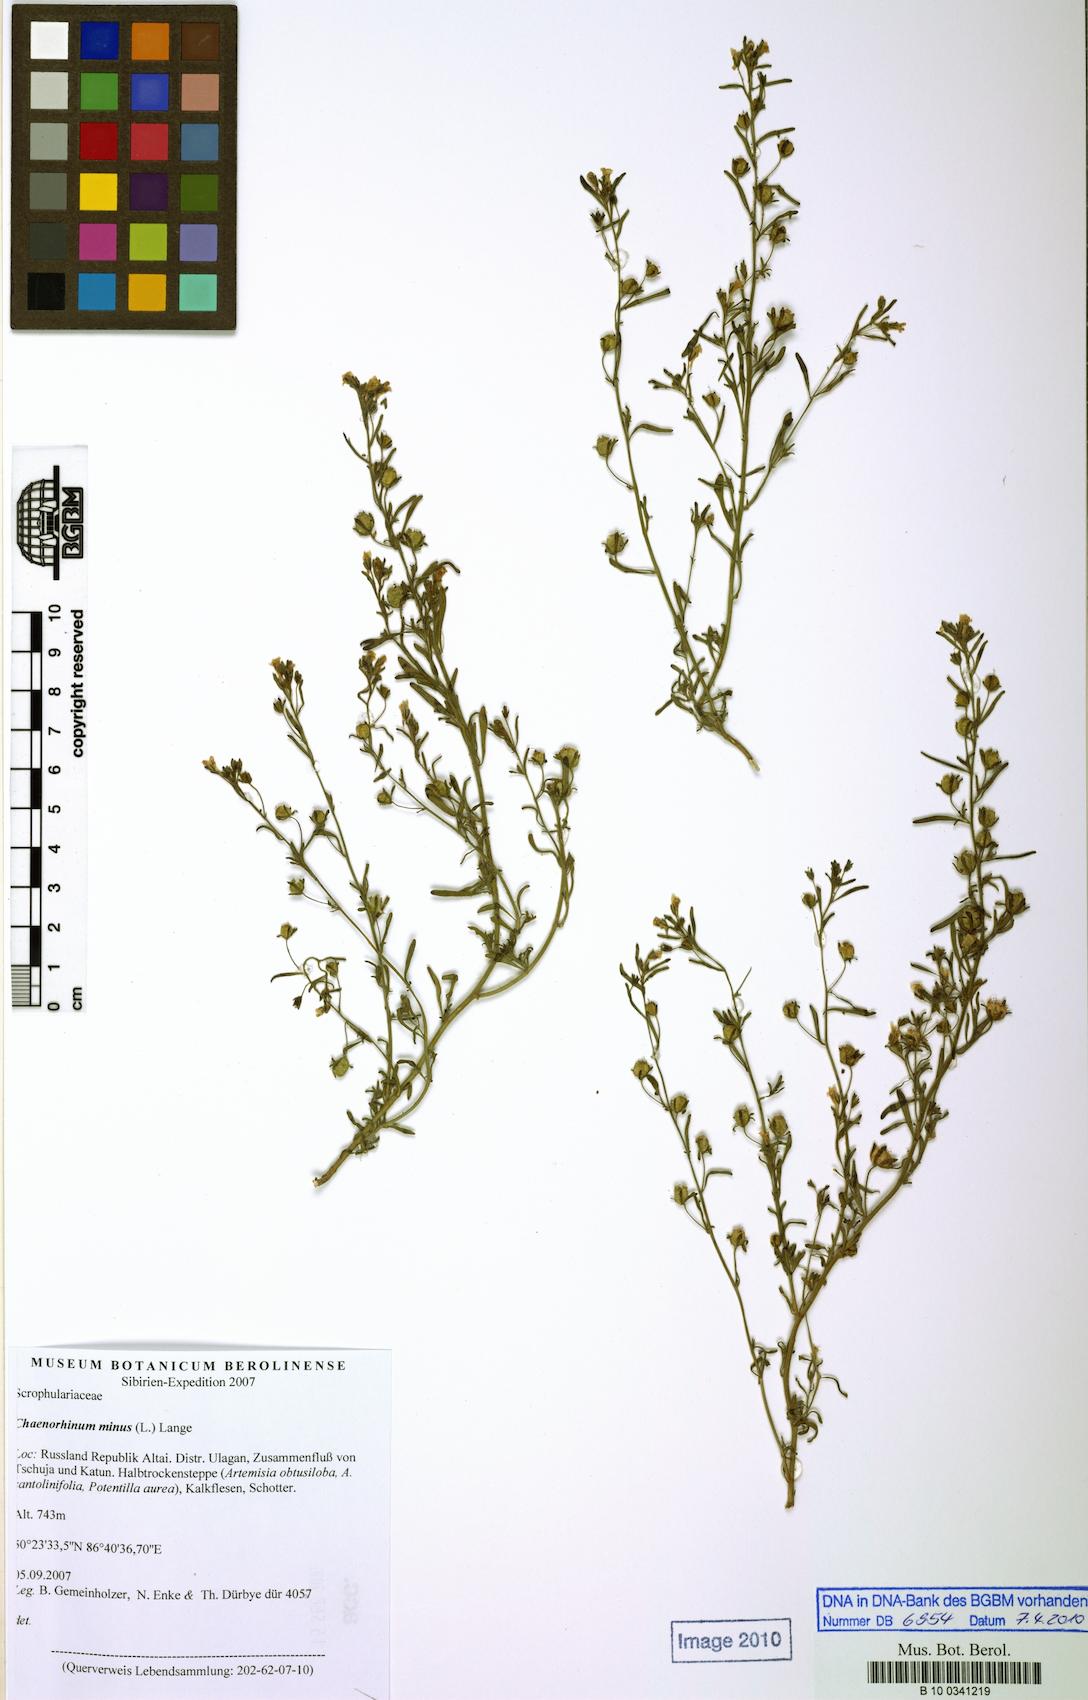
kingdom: Plantae
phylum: Tracheophyta
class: Magnoliopsida
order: Lamiales
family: Plantaginaceae
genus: Chaenorhinum
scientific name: Chaenorhinum minus
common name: Dwarf snapdragon
